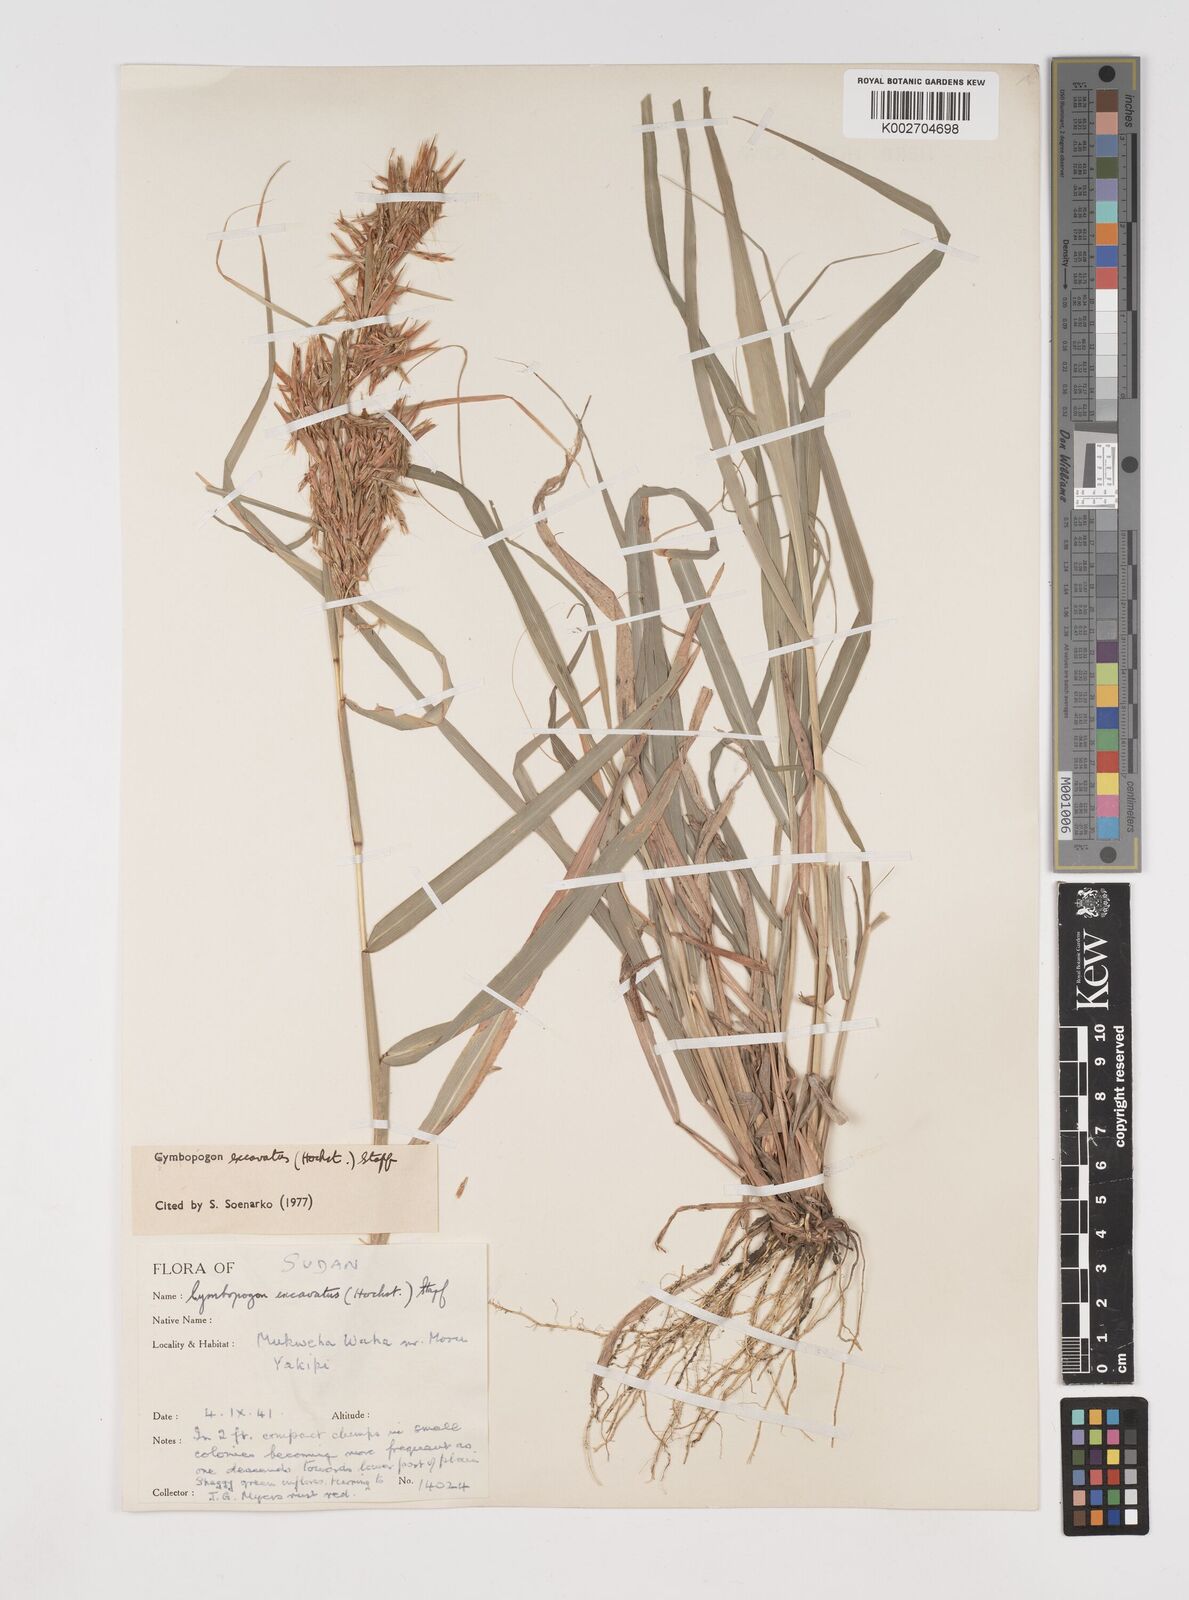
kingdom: Plantae
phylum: Tracheophyta
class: Liliopsida
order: Poales
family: Poaceae
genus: Cymbopogon
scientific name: Cymbopogon
